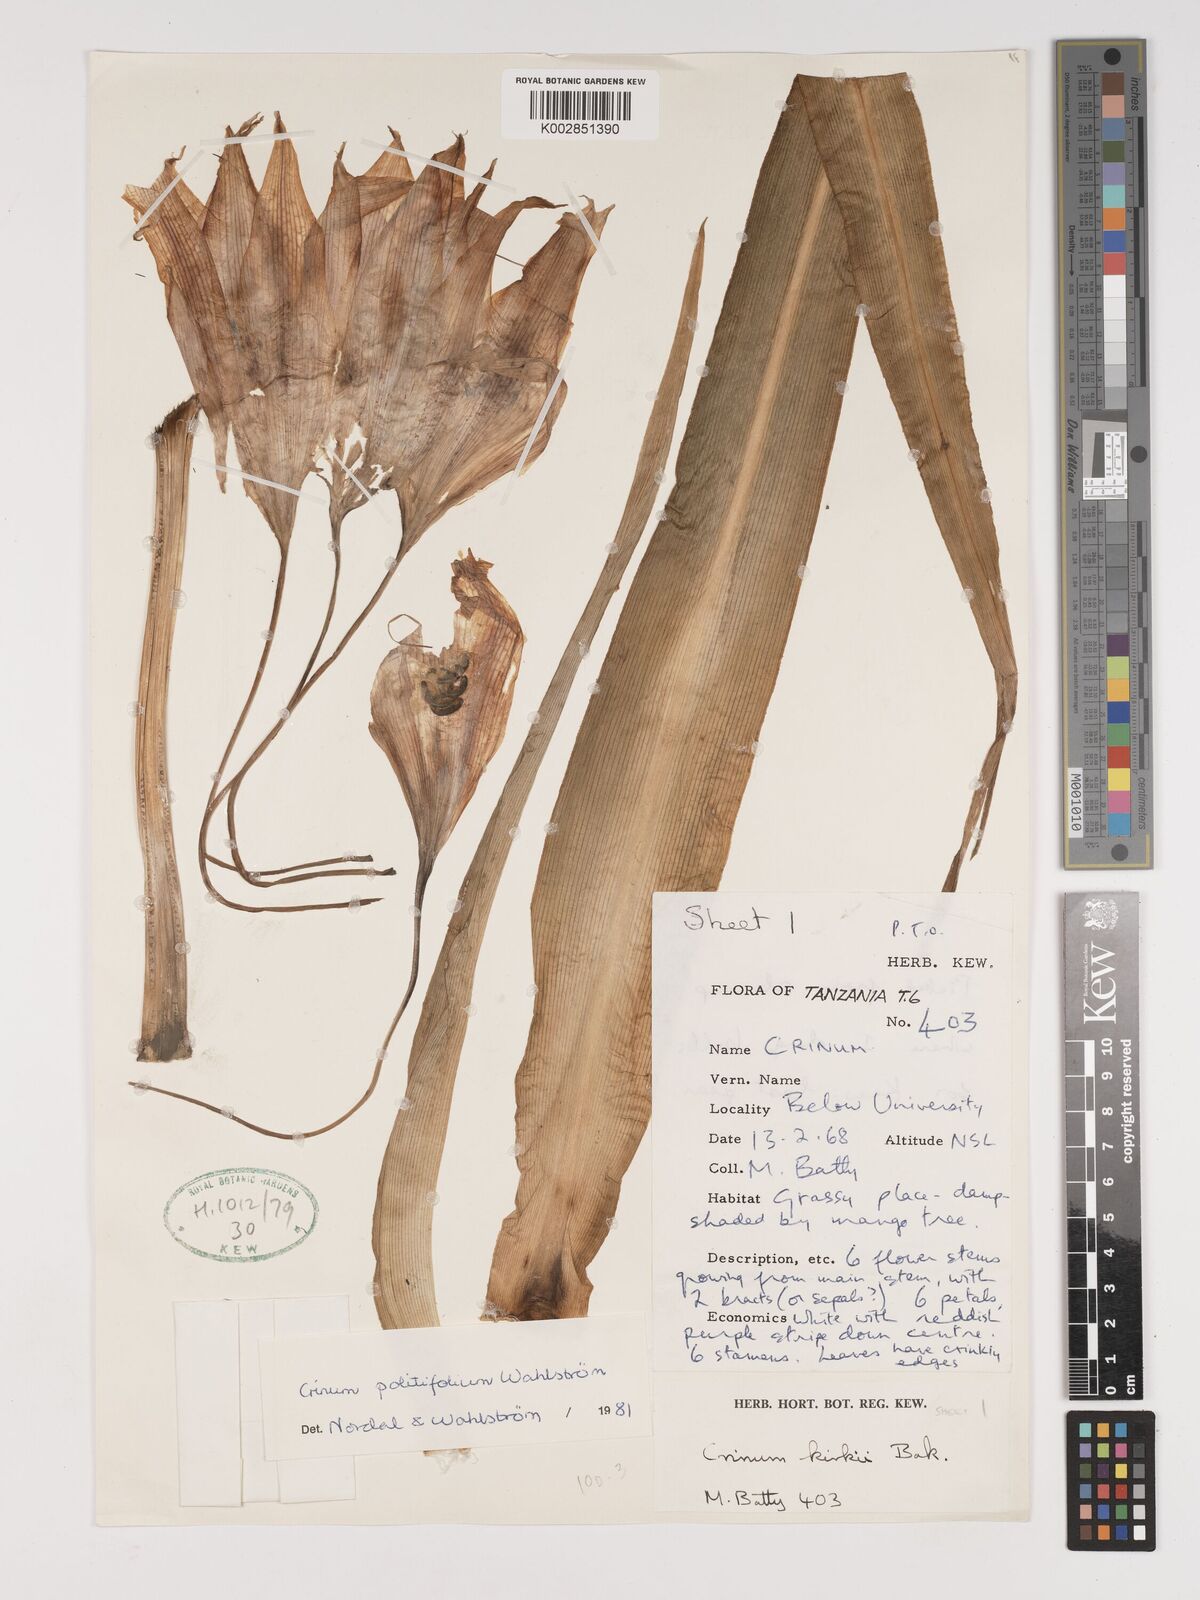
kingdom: Plantae
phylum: Tracheophyta
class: Liliopsida
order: Asparagales
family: Amaryllidaceae
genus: Crinum
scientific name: Crinum politifolium
